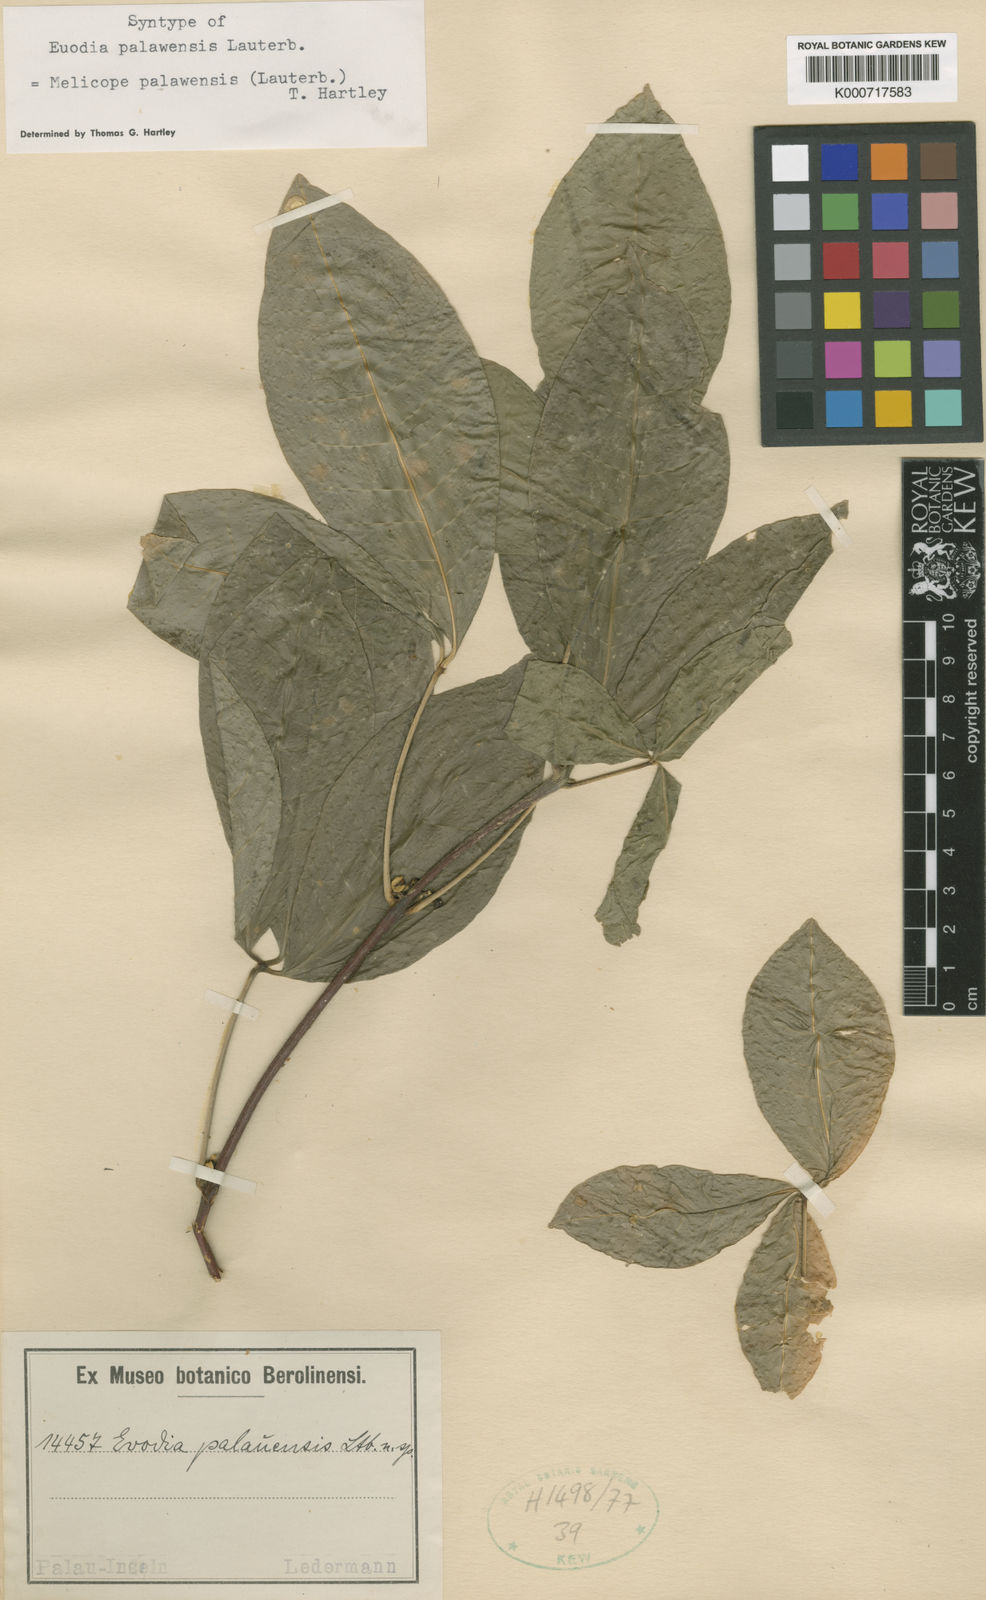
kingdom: Plantae
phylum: Tracheophyta
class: Magnoliopsida
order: Sapindales
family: Rutaceae
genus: Melicope
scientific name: Melicope palawensis
